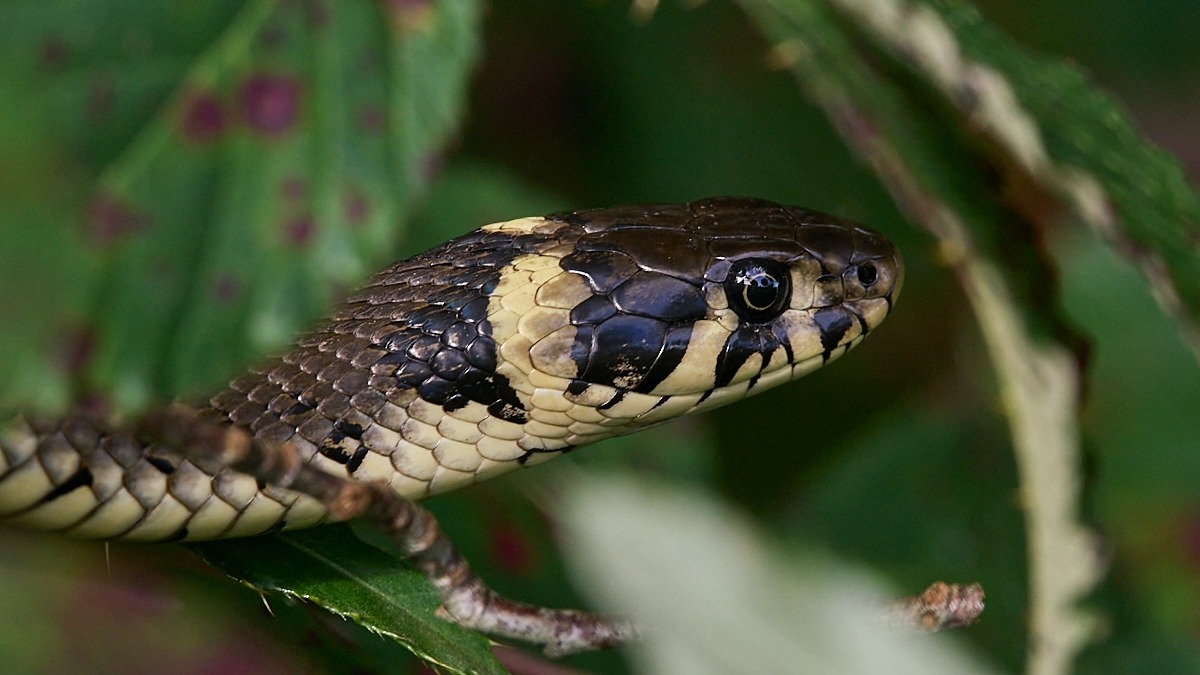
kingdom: Animalia
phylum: Chordata
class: Squamata
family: Colubridae
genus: Natrix
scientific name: Natrix natrix
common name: Snog
